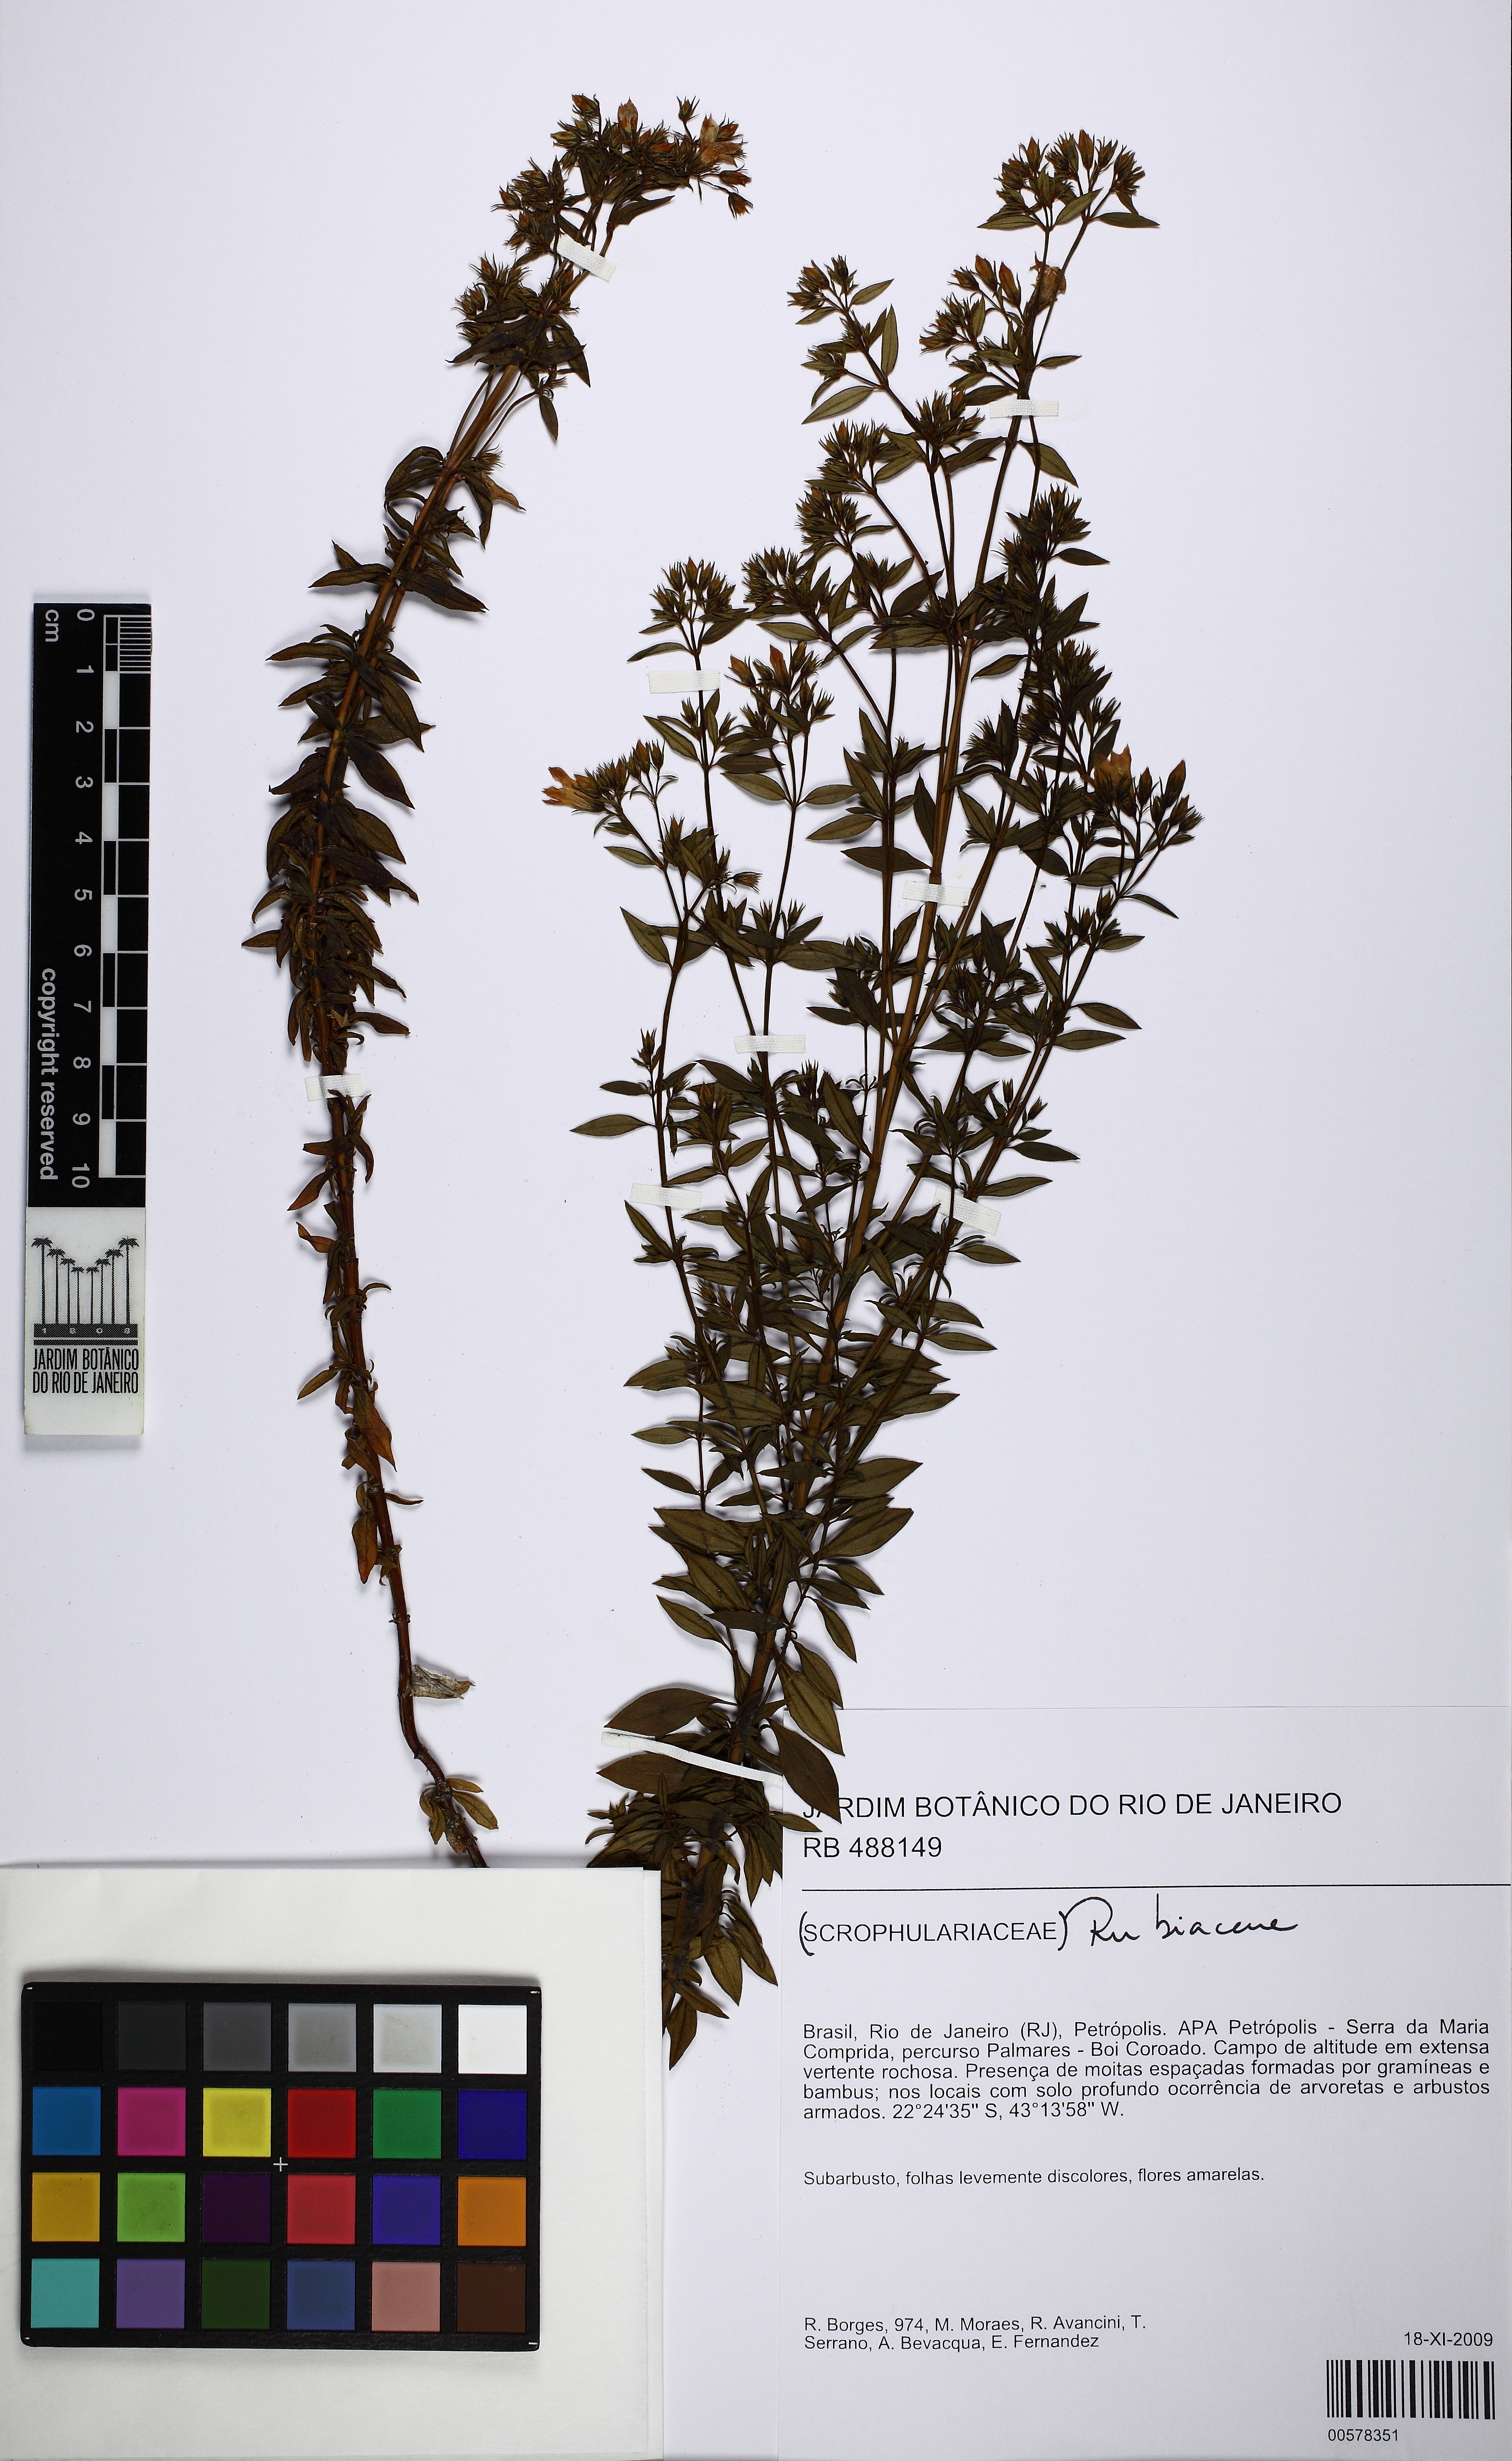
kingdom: Plantae
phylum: Tracheophyta
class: Magnoliopsida
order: Gentianales
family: Gentianaceae
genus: Hockinia
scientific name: Hockinia montana
